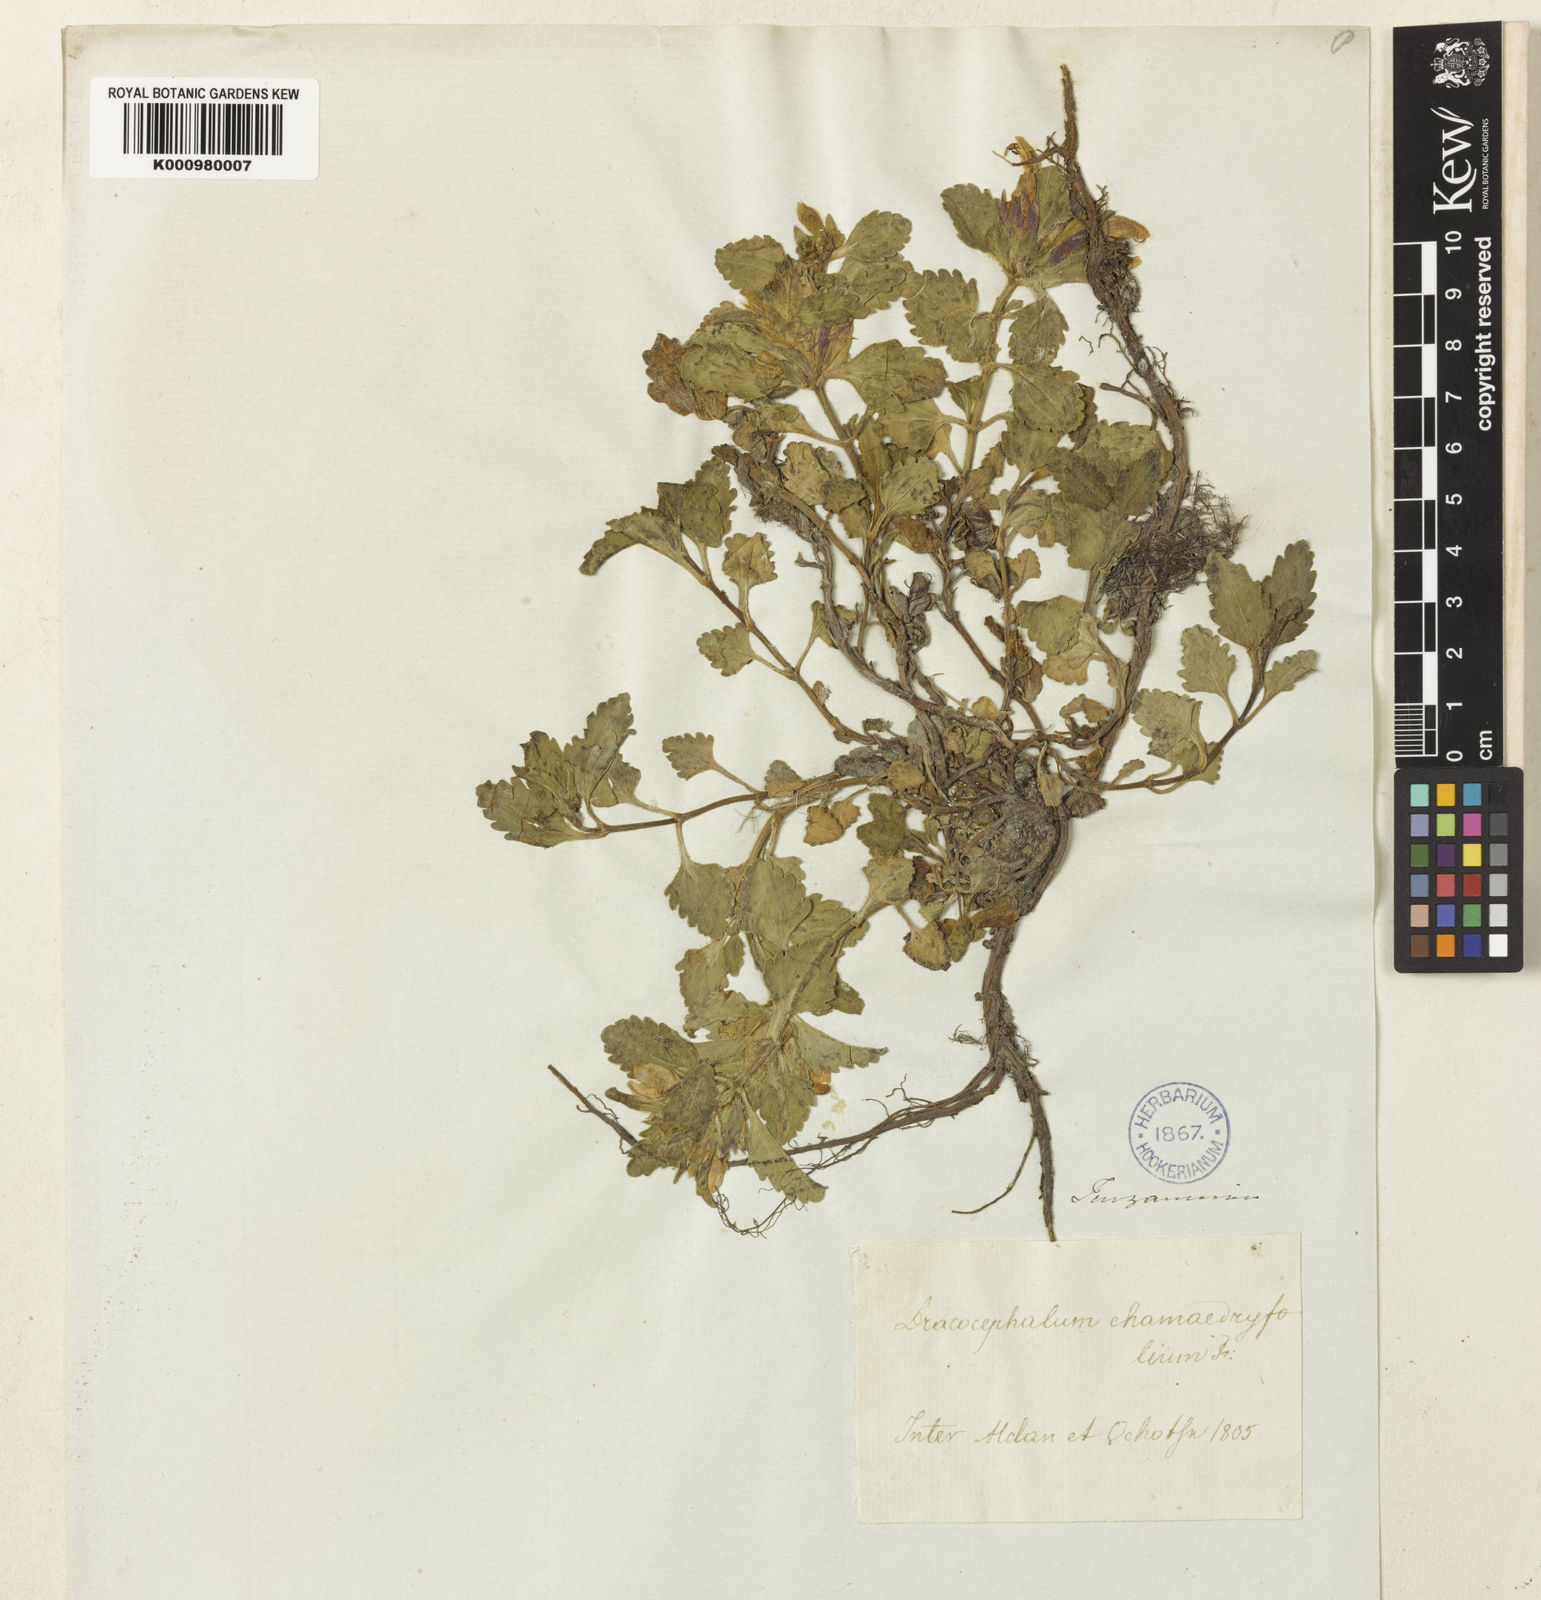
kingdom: Plantae
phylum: Tracheophyta
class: Magnoliopsida
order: Lamiales
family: Lamiaceae
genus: Dracocephalum
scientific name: Dracocephalum stellerianum
